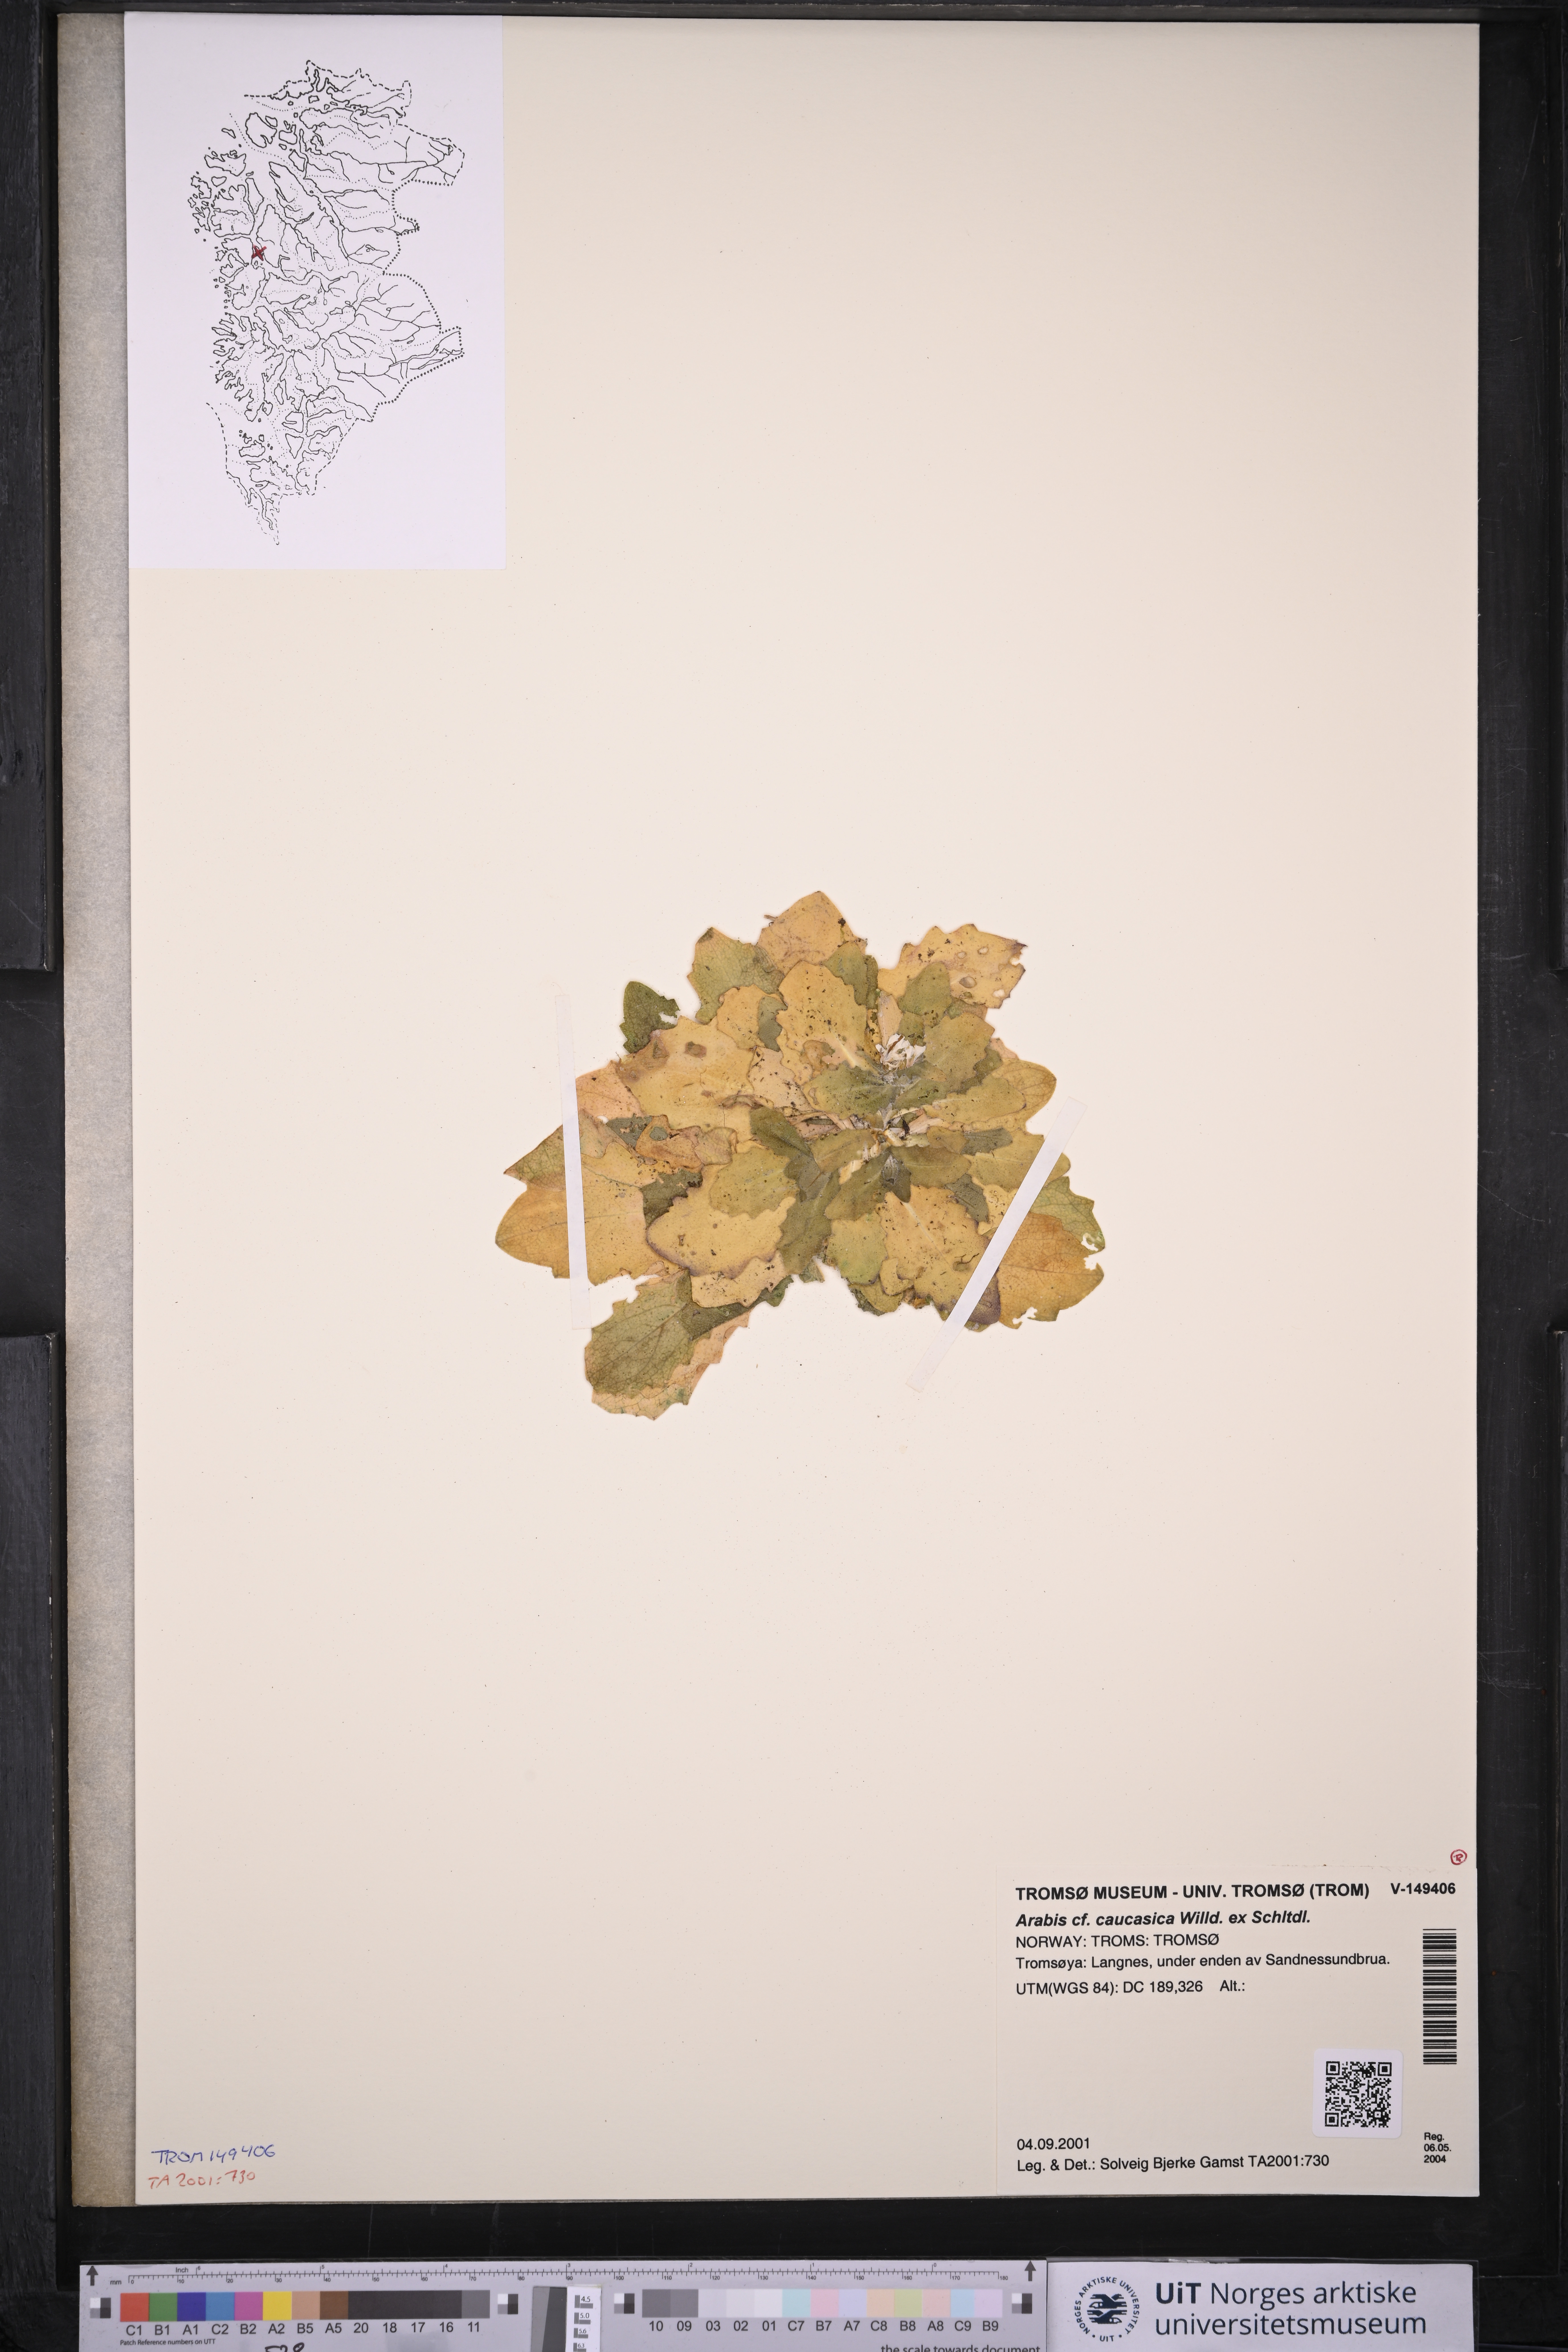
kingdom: Plantae
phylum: Tracheophyta
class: Magnoliopsida
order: Brassicales
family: Brassicaceae
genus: Arabis
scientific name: Arabis caucasica
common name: Gray rockcress
